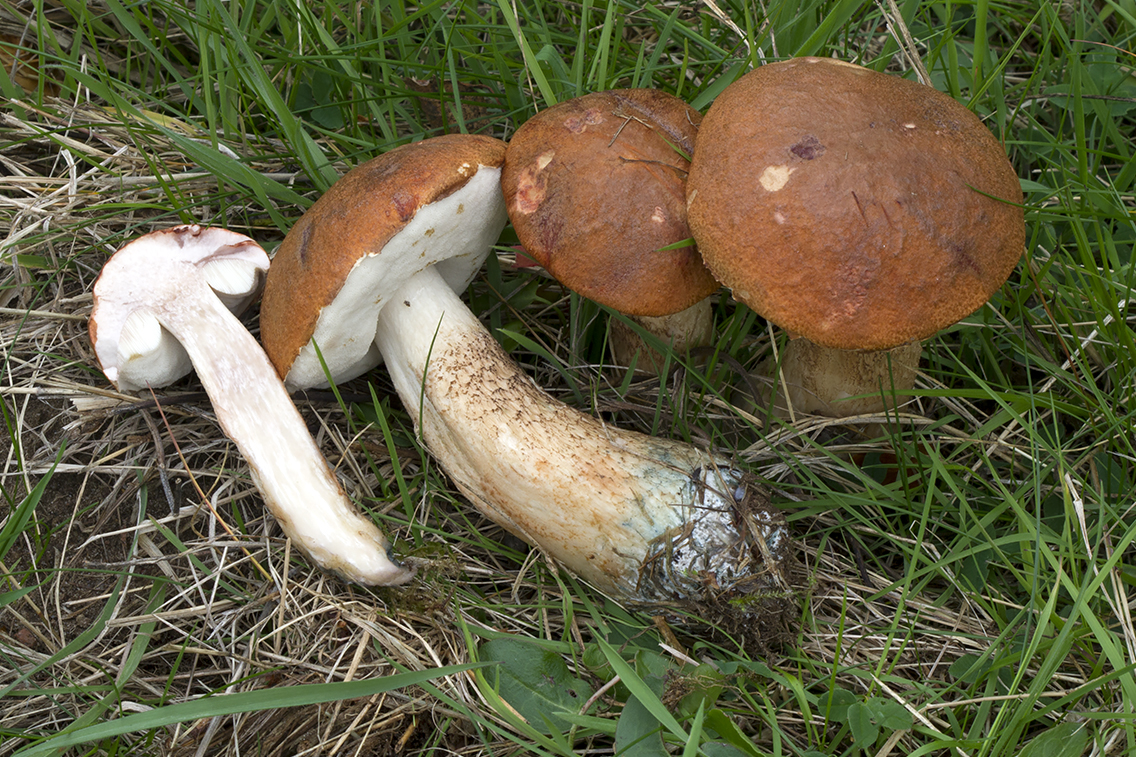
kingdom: Fungi
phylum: Basidiomycota
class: Agaricomycetes
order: Boletales
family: Boletaceae
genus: Leccinum
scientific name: Leccinum aurantiacum
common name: rustrød skælrørhat
